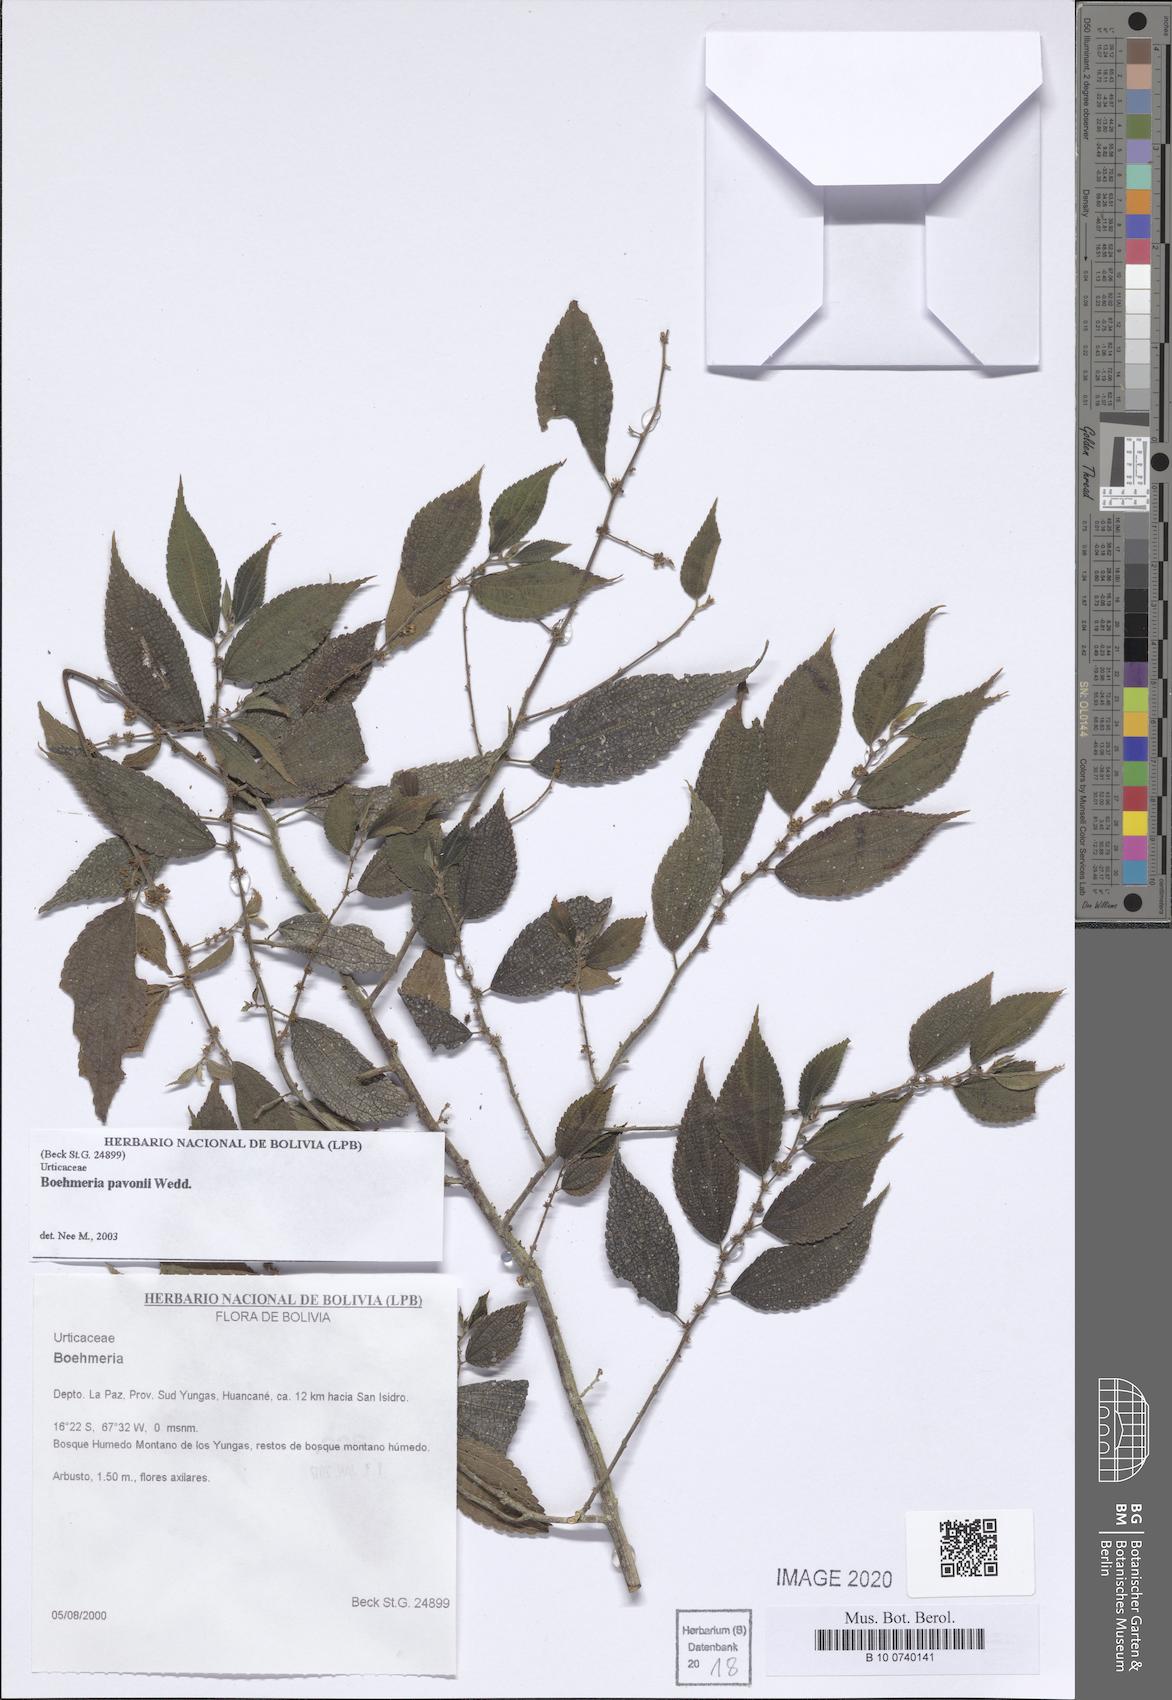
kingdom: Plantae
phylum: Tracheophyta
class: Magnoliopsida
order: Rosales
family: Urticaceae
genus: Boehmeria
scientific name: Boehmeria pavonii
